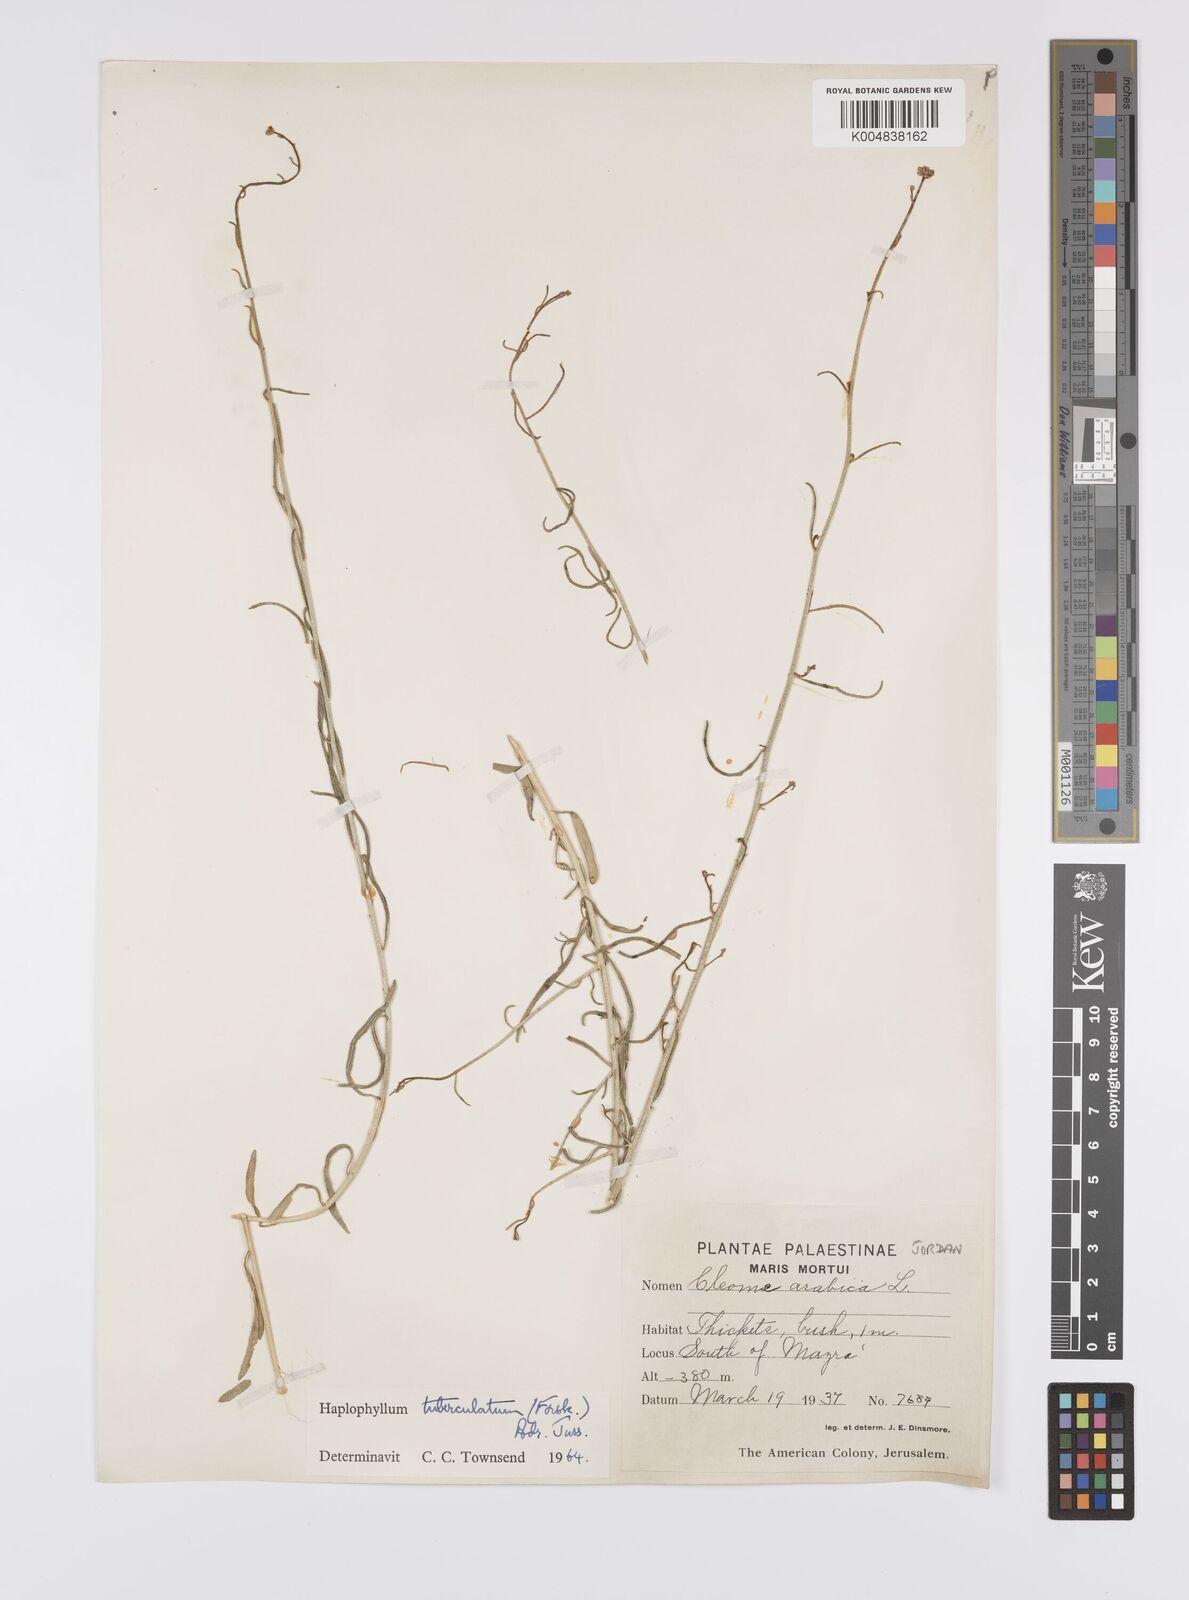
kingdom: Plantae
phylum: Tracheophyta
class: Magnoliopsida
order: Sapindales
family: Rutaceae
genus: Haplophyllum
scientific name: Haplophyllum tuberculatum
